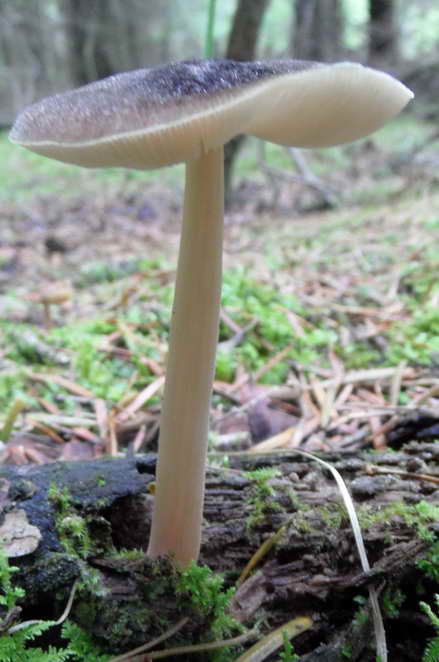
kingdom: Fungi
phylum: Basidiomycota
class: Agaricomycetes
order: Agaricales
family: Pluteaceae
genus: Pluteus
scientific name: Pluteus roseipes
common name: rosafodet skærmhat
